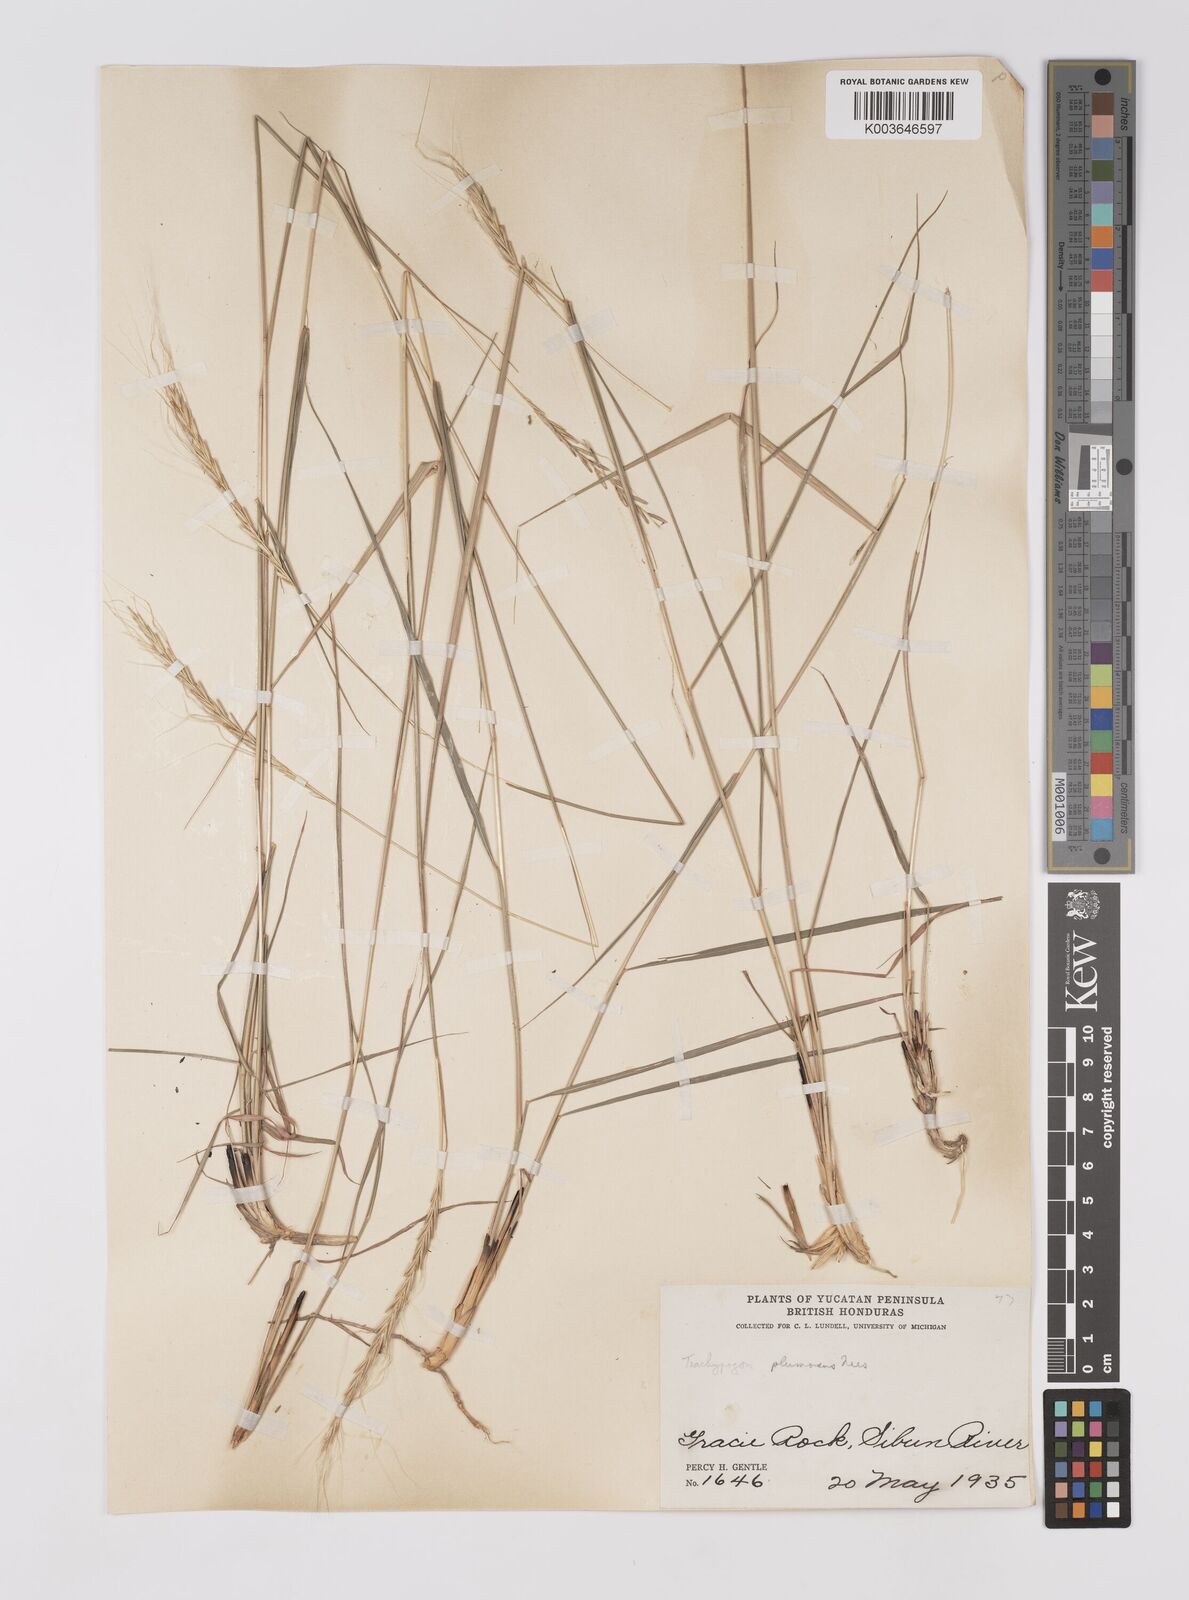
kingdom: Plantae
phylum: Tracheophyta
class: Liliopsida
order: Poales
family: Poaceae
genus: Trachypogon
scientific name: Trachypogon spicatus
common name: Crinkle-awn
